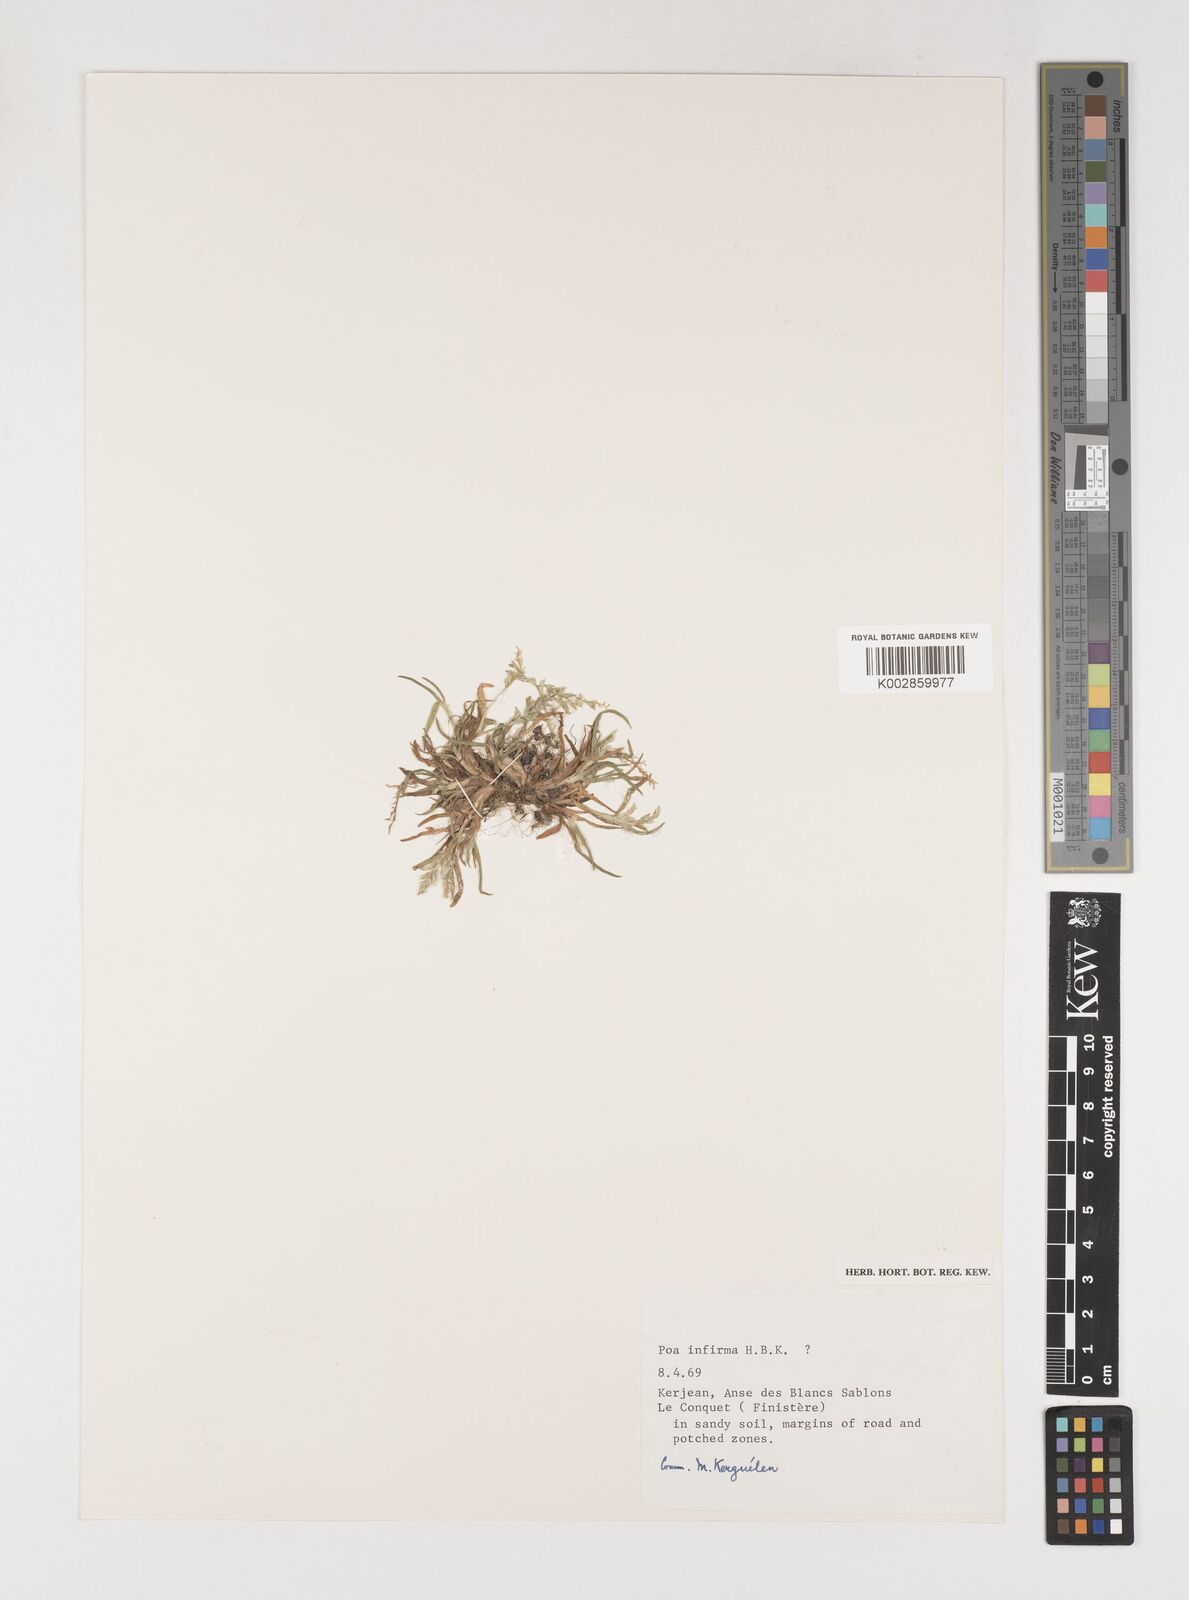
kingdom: Plantae
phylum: Tracheophyta
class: Liliopsida
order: Poales
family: Poaceae
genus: Poa
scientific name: Poa infirma
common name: Weak bluegrass
